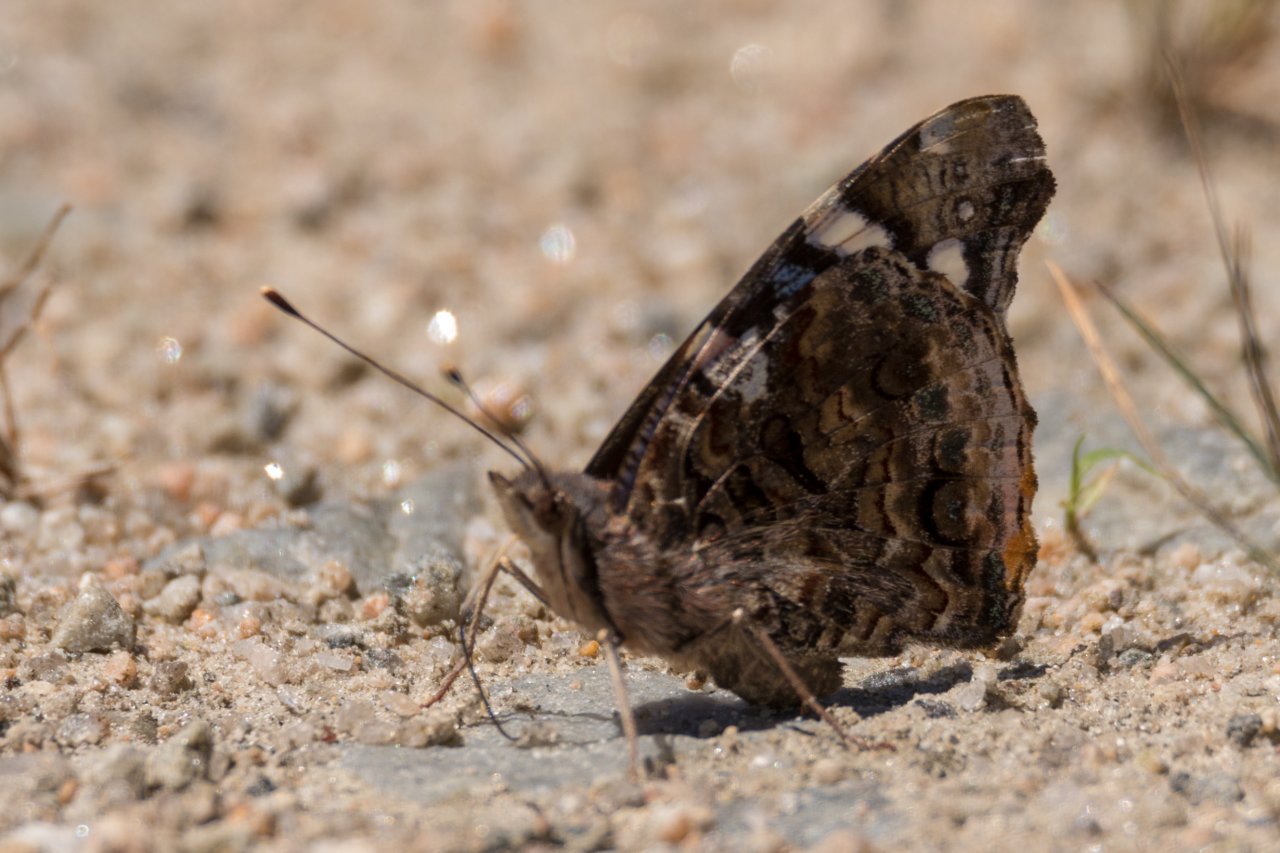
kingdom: Animalia
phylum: Arthropoda
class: Insecta
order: Lepidoptera
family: Nymphalidae
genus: Vanessa
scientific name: Vanessa atalanta
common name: Red Admiral
